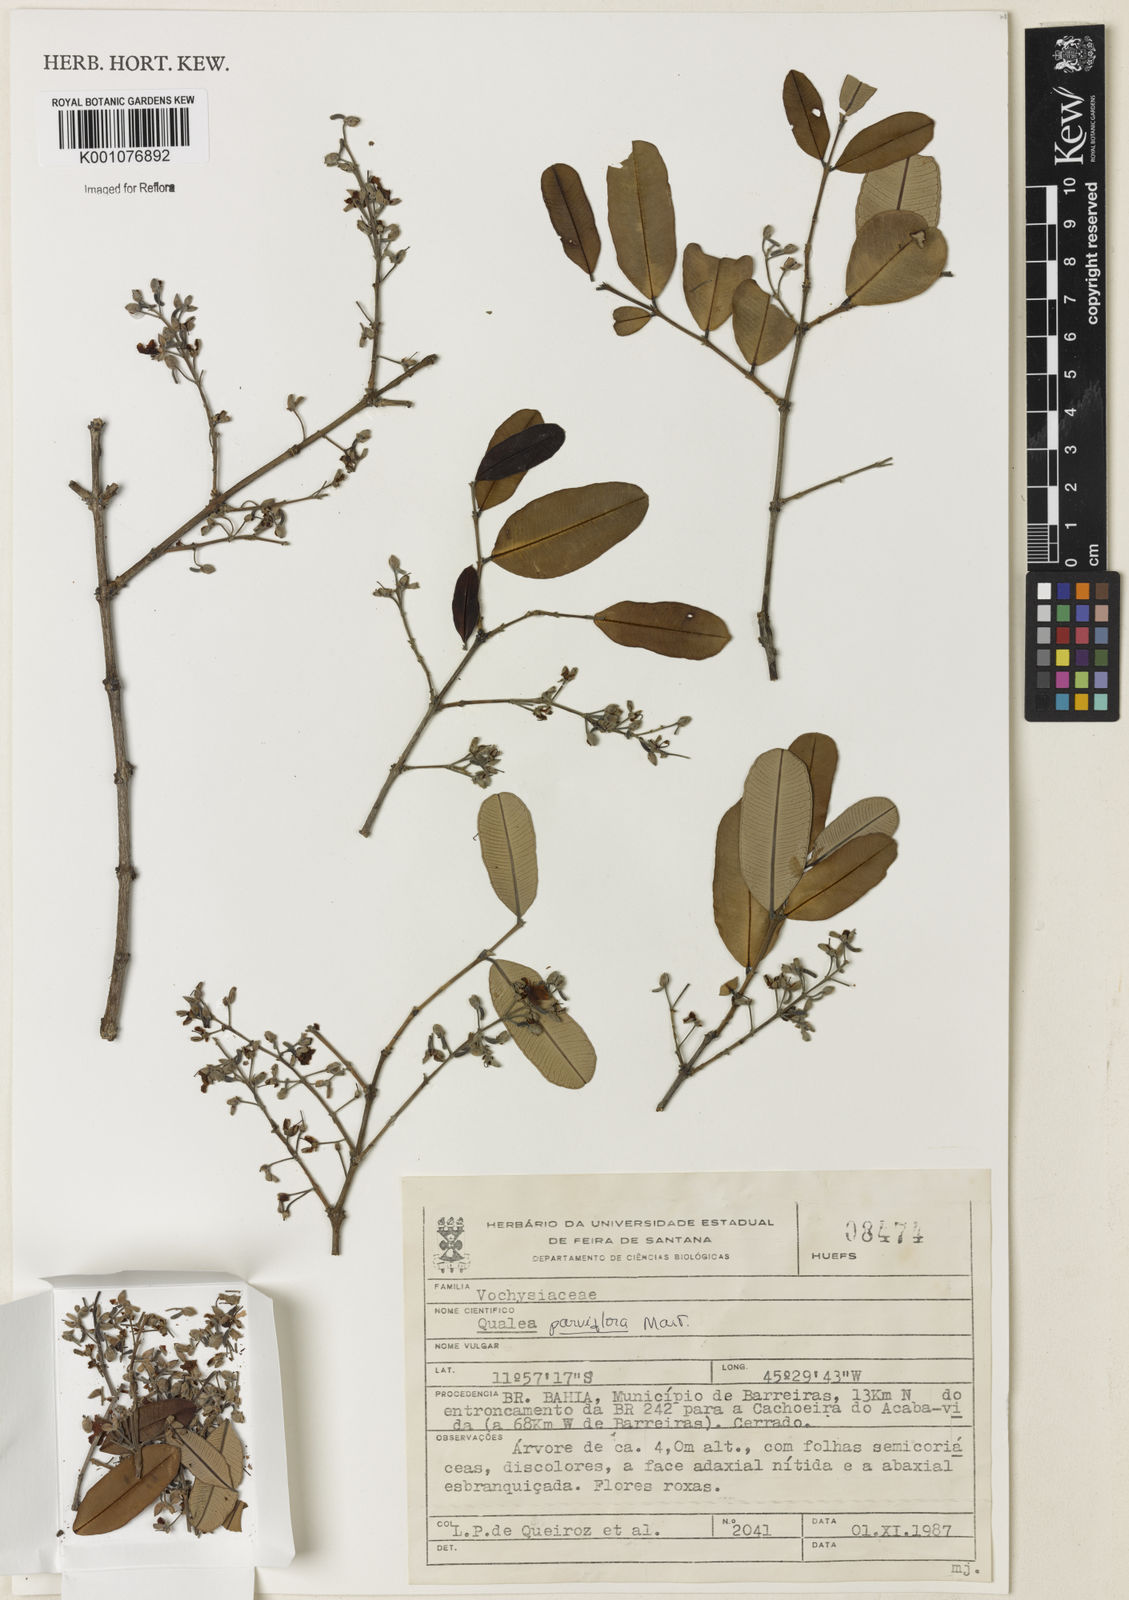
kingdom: Plantae
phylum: Tracheophyta
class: Magnoliopsida
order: Myrtales
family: Vochysiaceae
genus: Qualea
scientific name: Qualea parviflora
